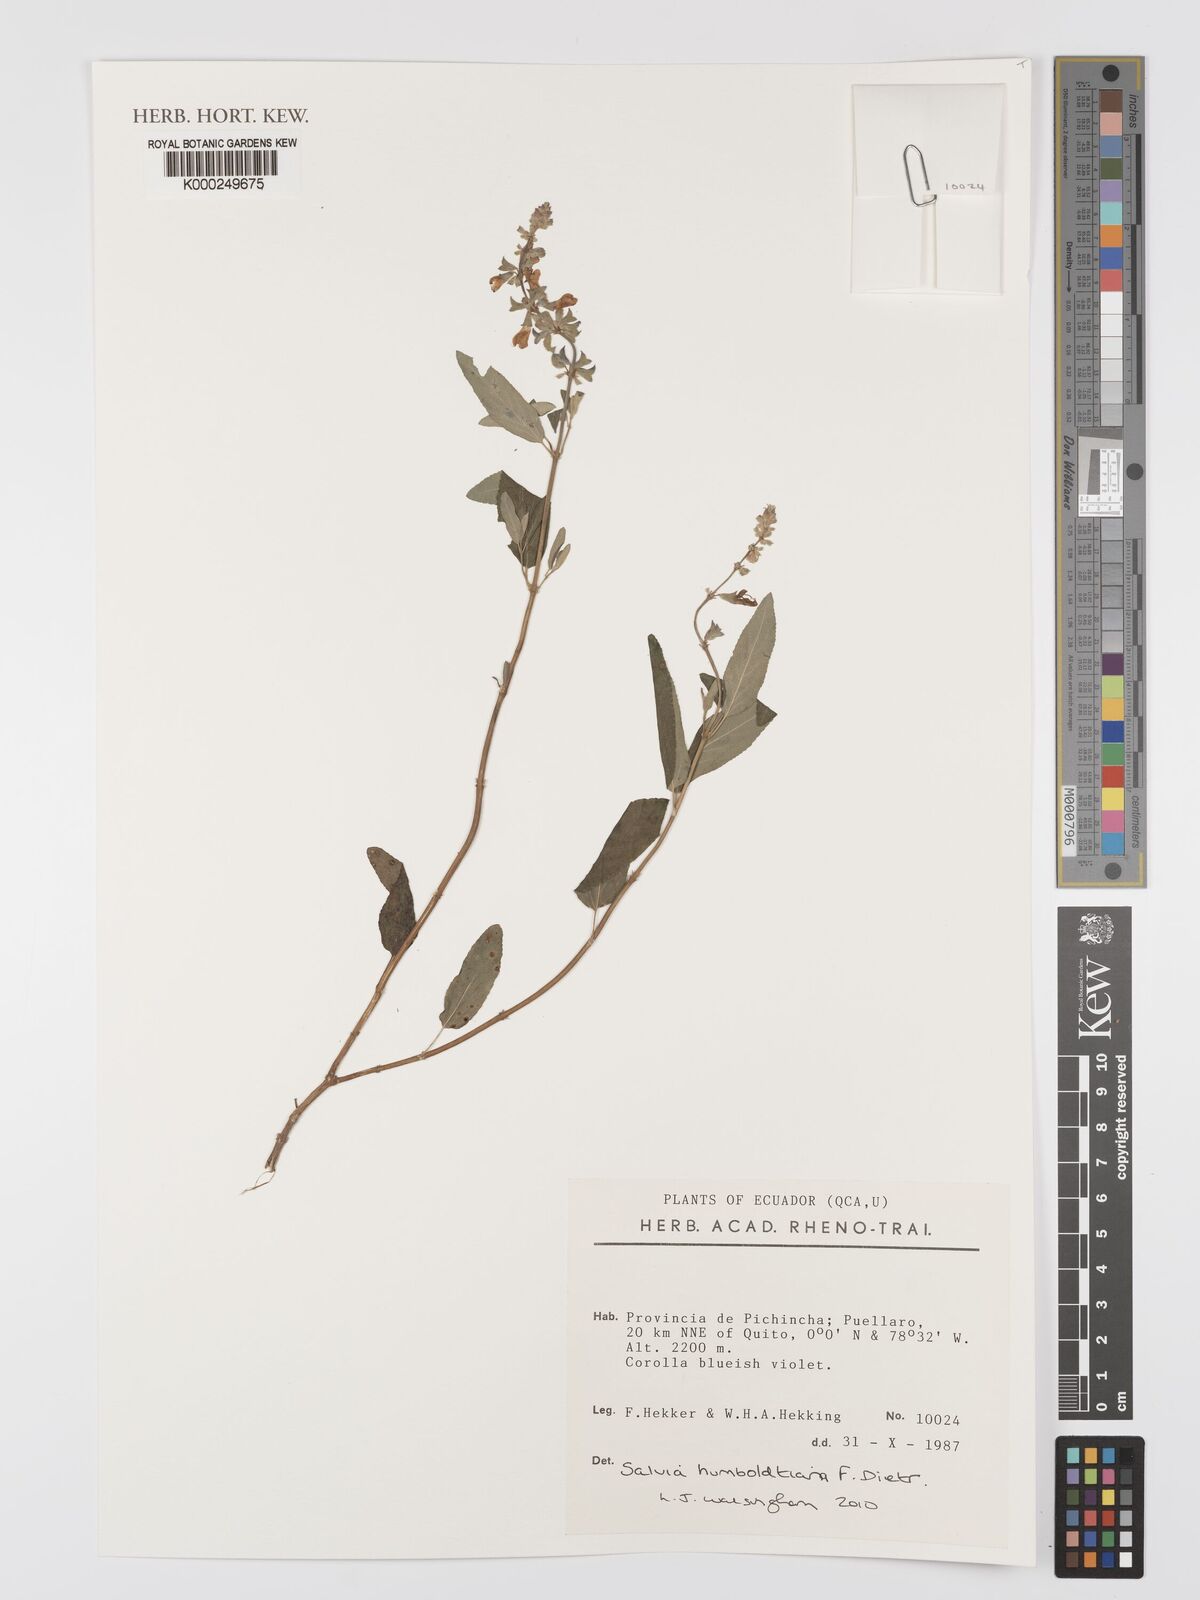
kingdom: Plantae
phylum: Tracheophyta
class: Magnoliopsida
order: Lamiales
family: Lamiaceae
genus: Salvia
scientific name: Salvia humboldtiana
